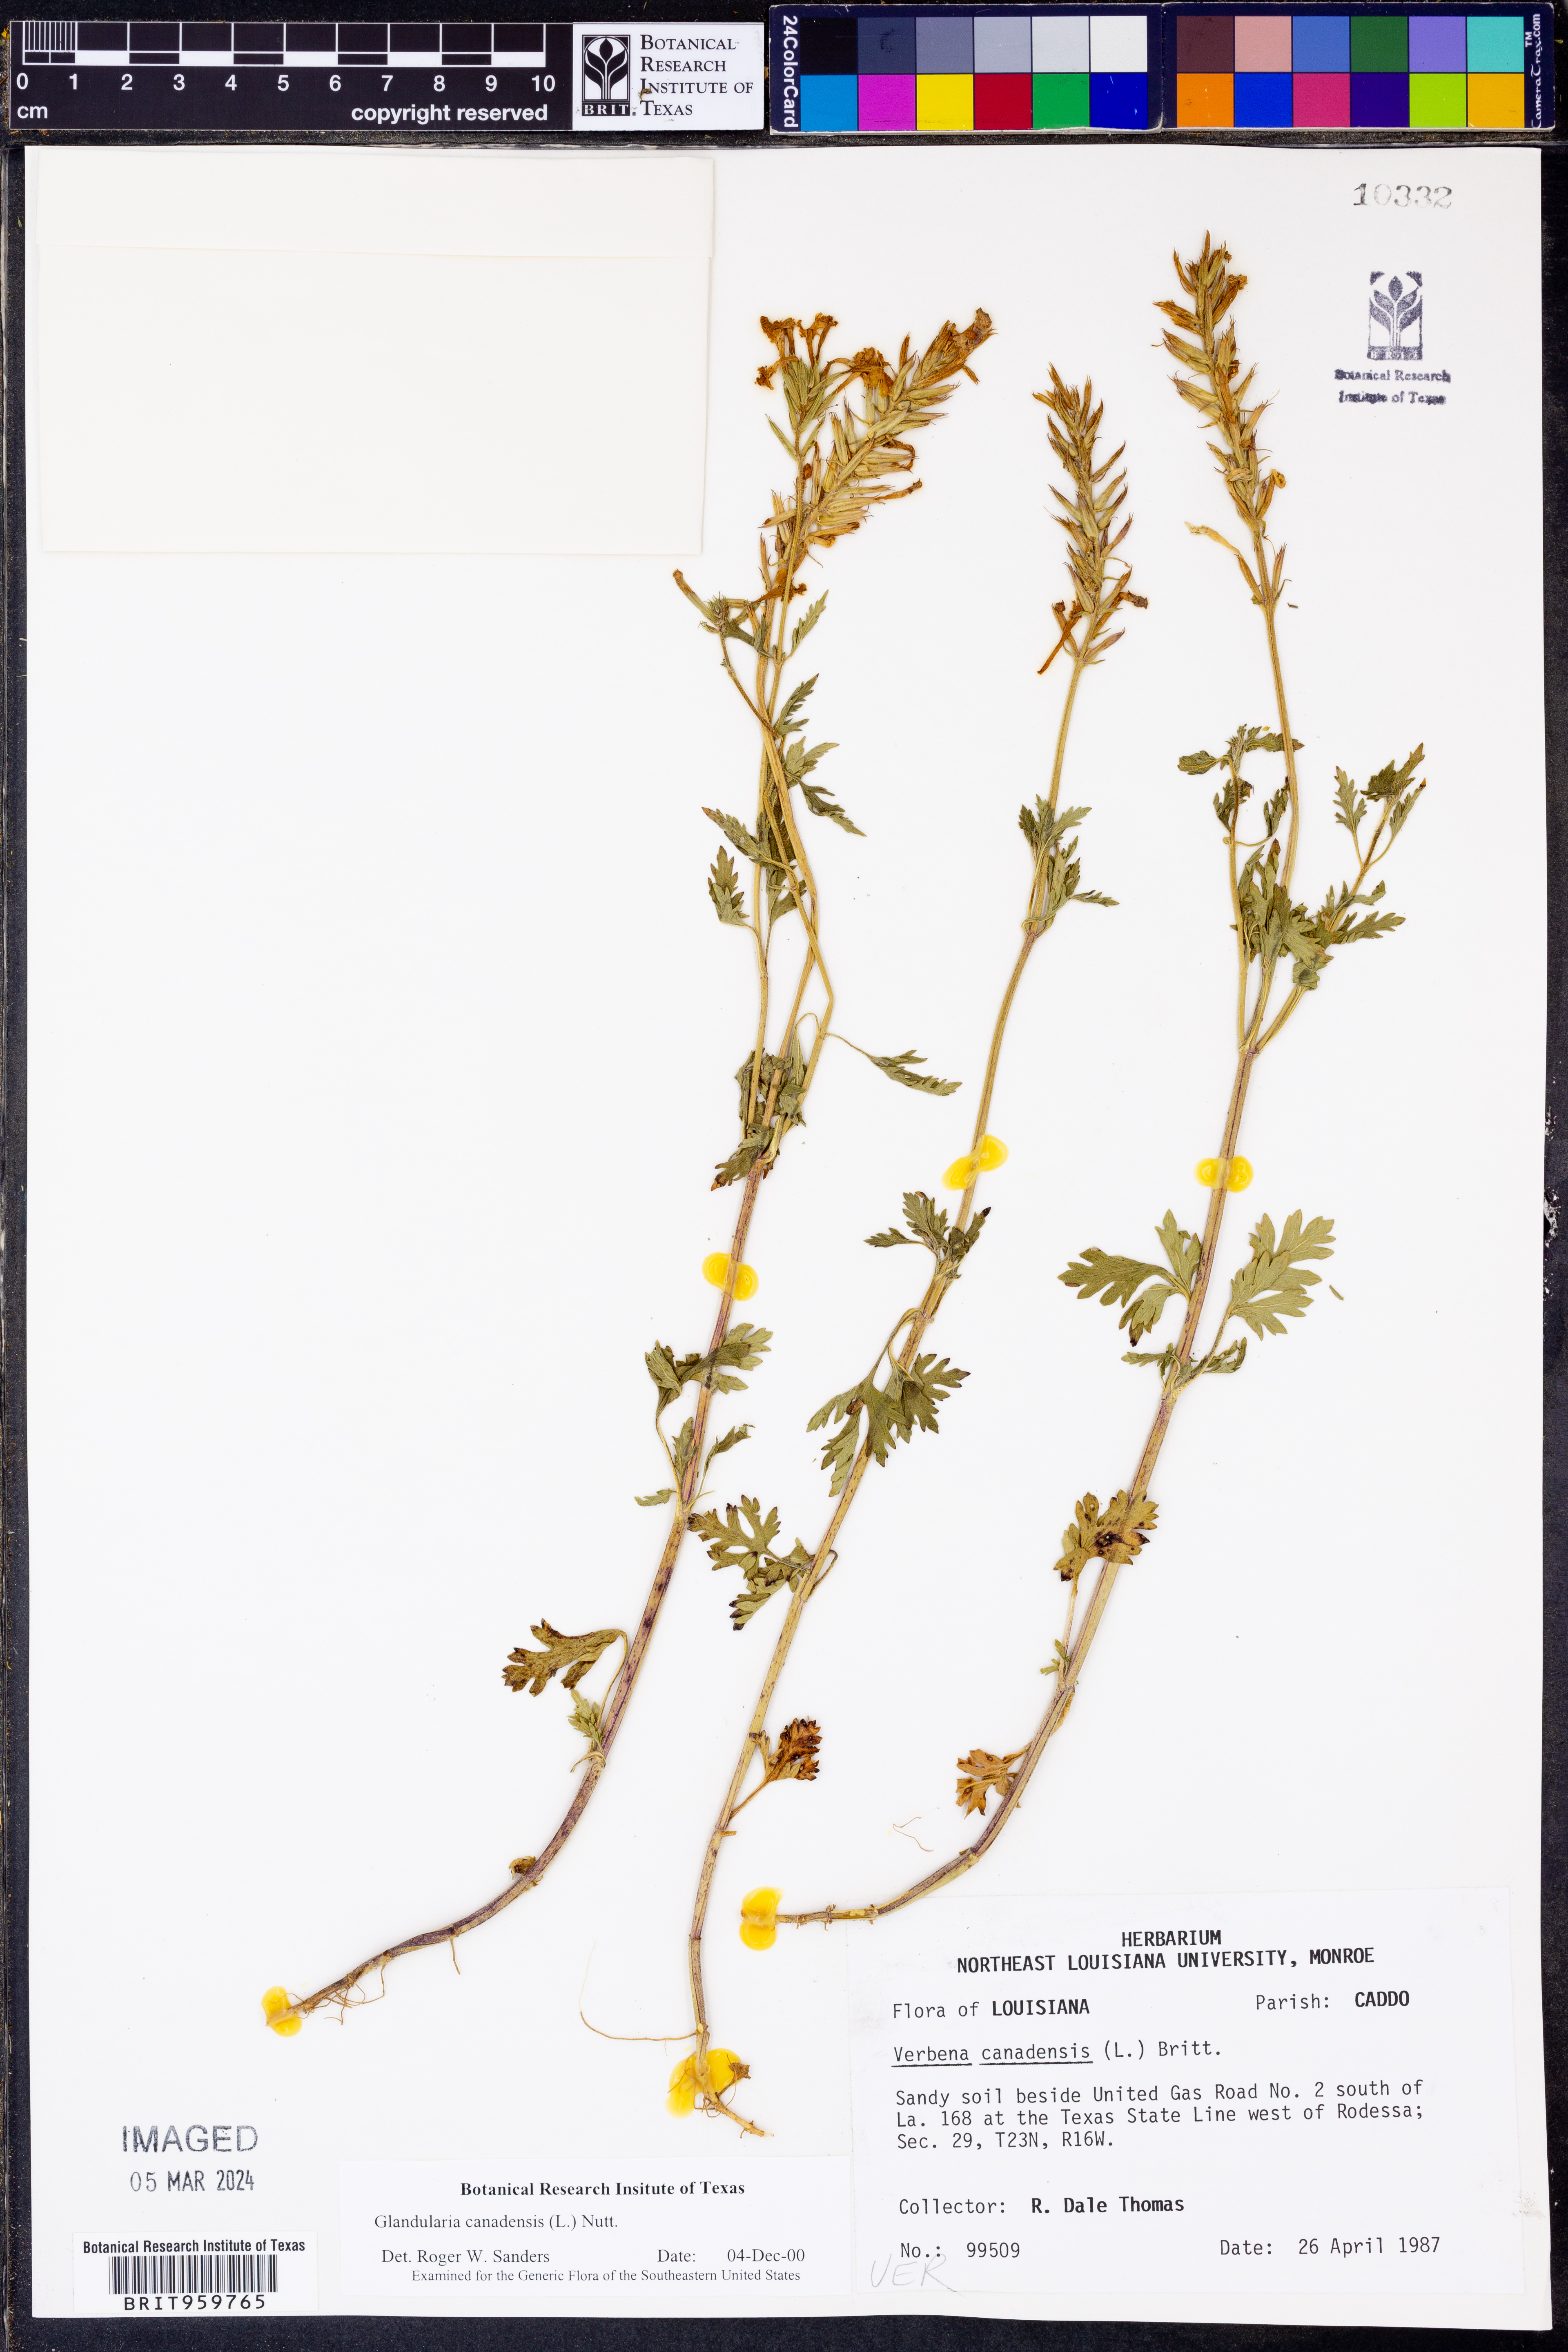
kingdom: Plantae
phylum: Tracheophyta
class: Magnoliopsida
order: Lamiales
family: Verbenaceae
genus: Verbena
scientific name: Verbena canadensis
